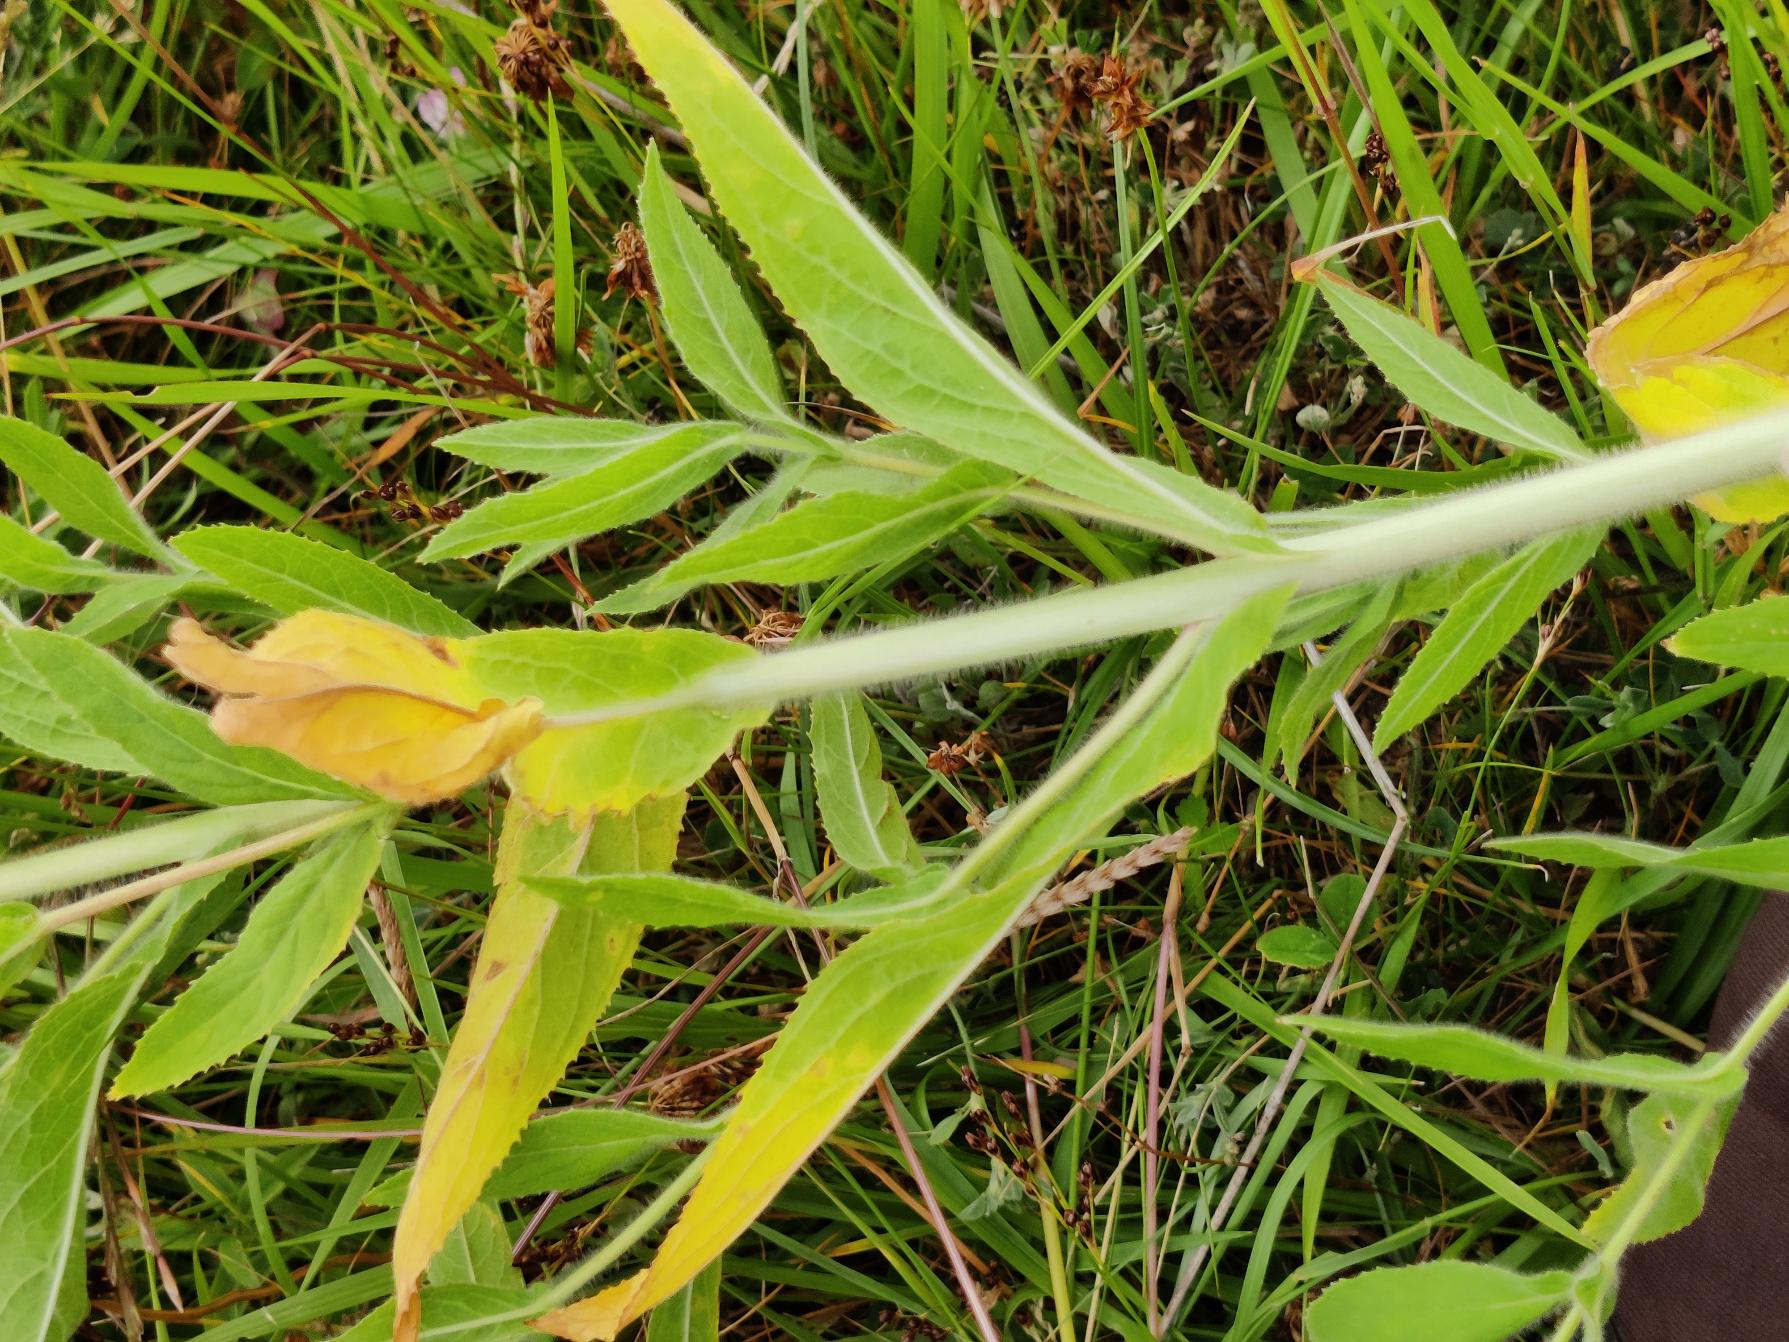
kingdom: Plantae
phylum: Tracheophyta
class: Magnoliopsida
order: Myrtales
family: Onagraceae
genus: Epilobium
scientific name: Epilobium hirsutum
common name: Lådden dueurt
